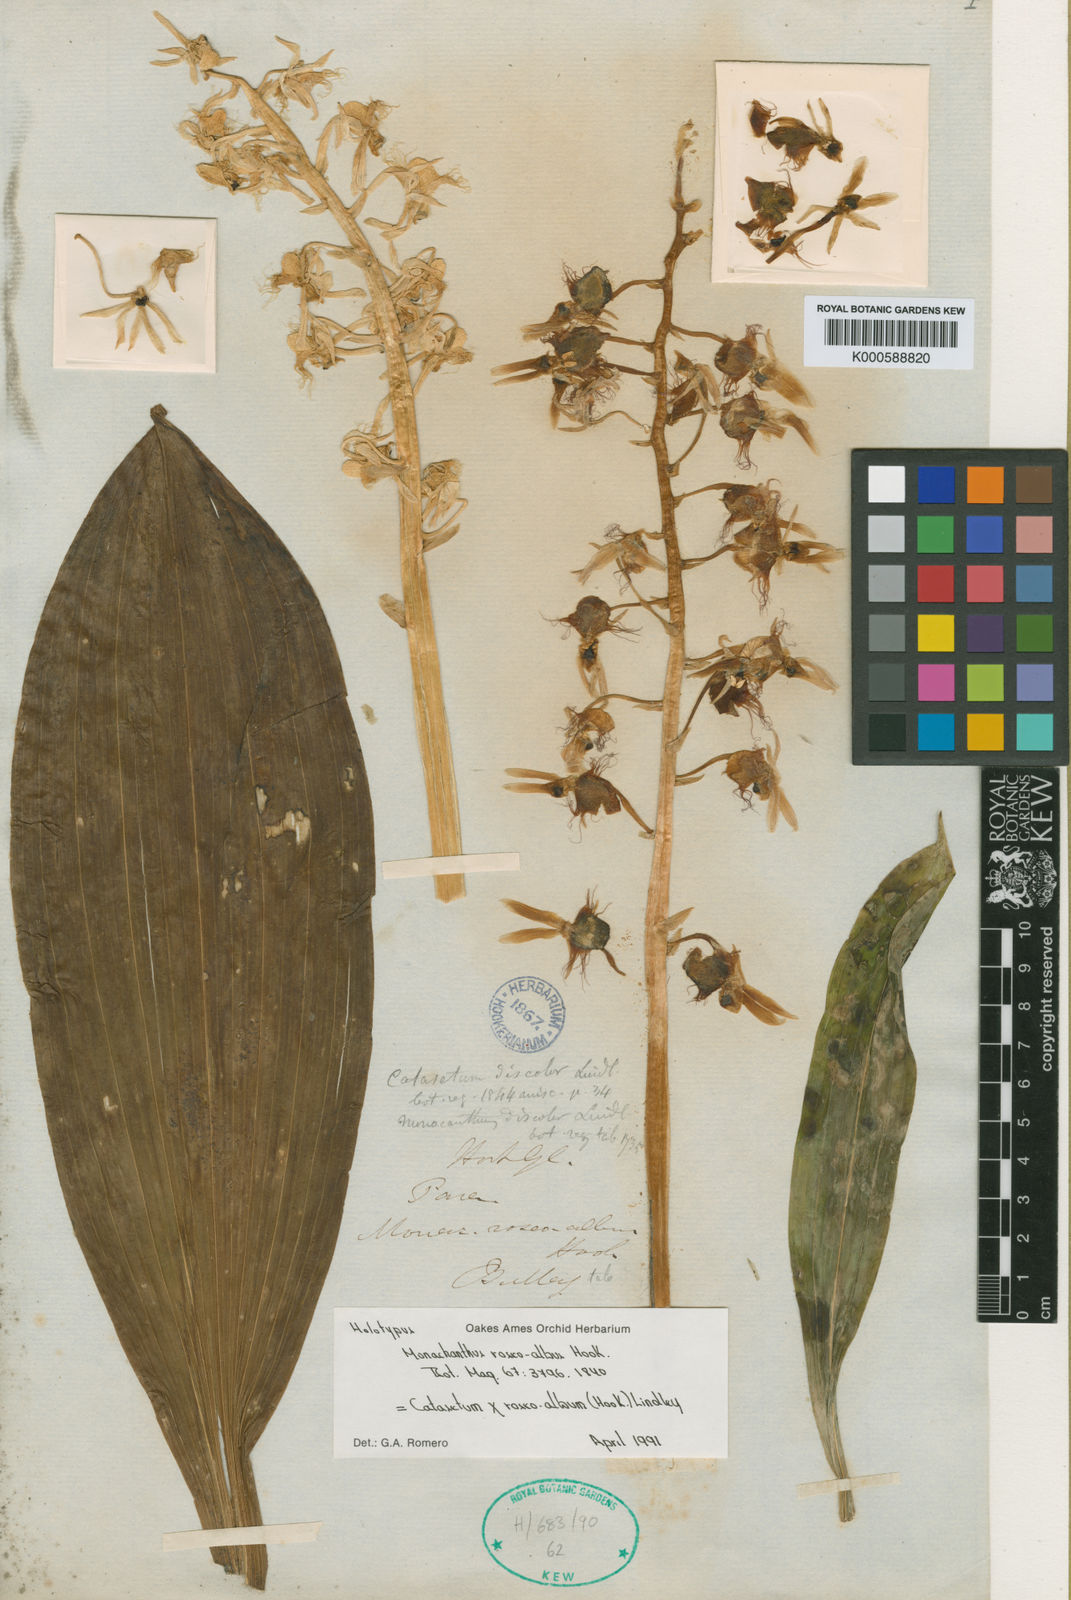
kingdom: Plantae
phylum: Tracheophyta
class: Liliopsida
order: Asparagales
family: Orchidaceae
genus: Catasetum
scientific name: Catasetum roseoalbum
